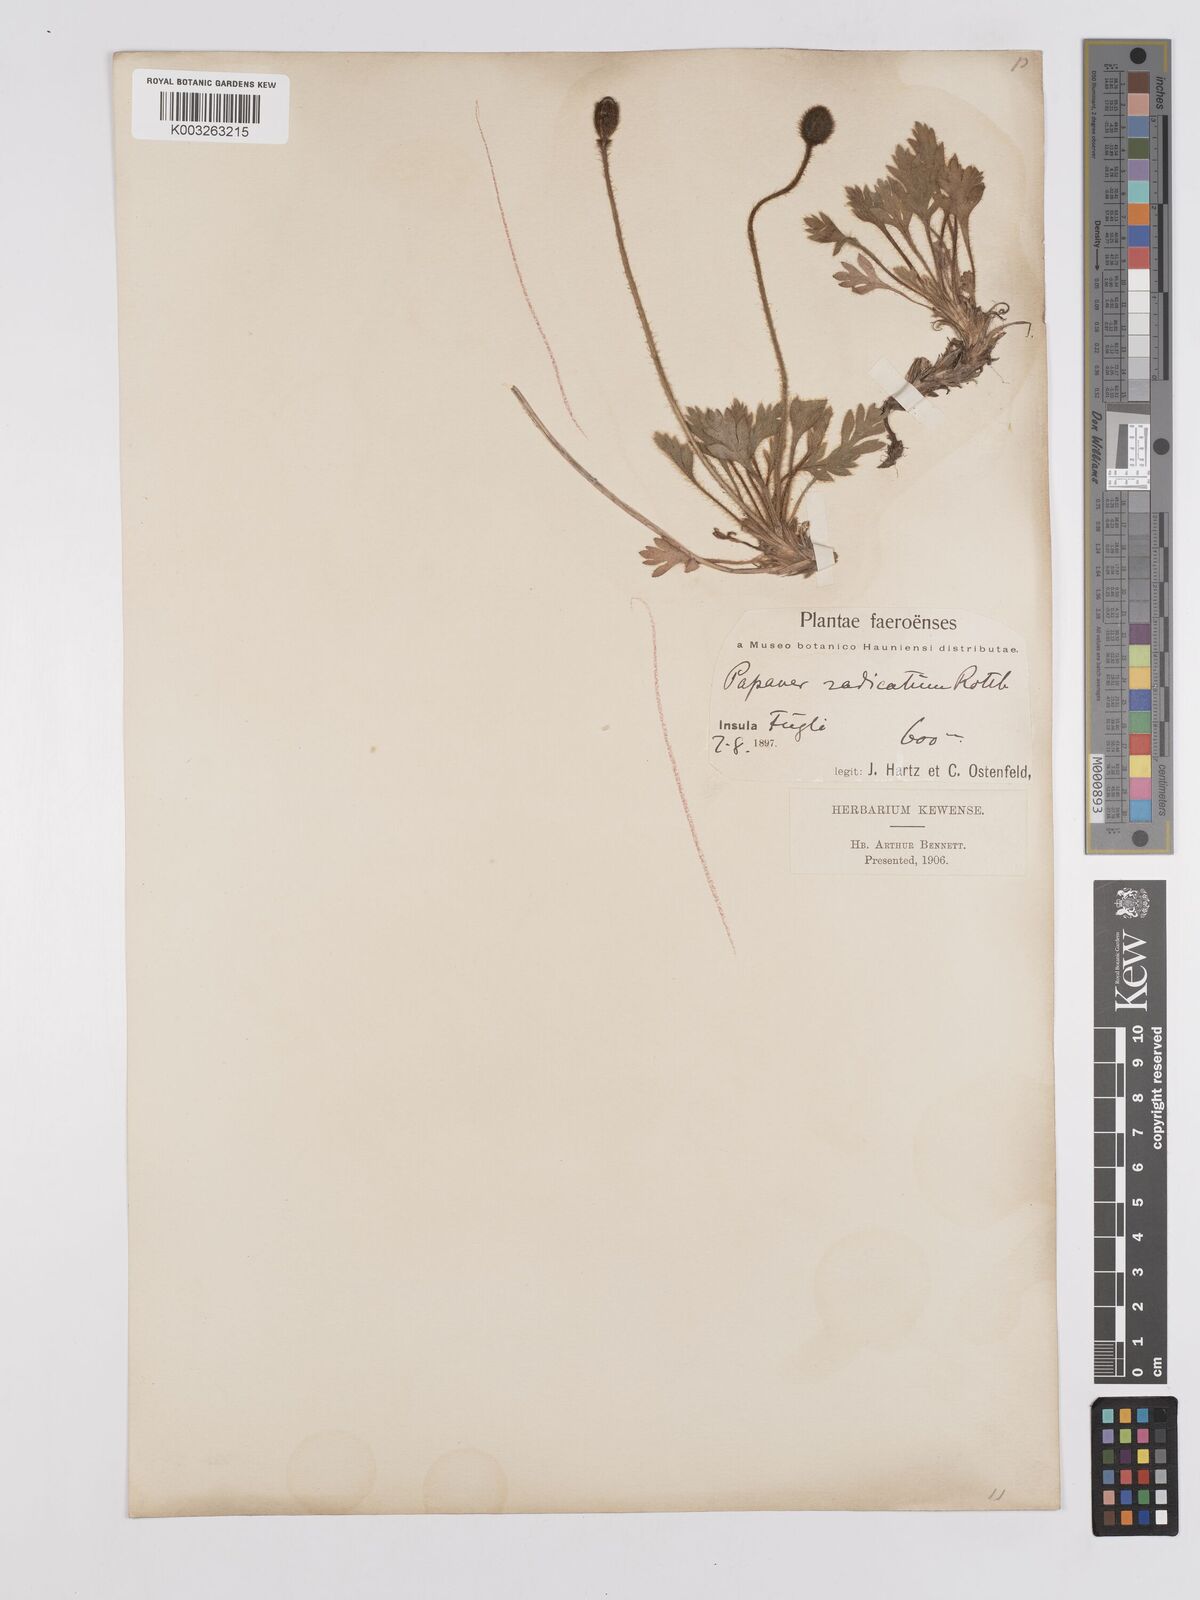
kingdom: Plantae
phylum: Tracheophyta
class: Magnoliopsida
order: Ranunculales
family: Papaveraceae
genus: Papaver
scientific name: Papaver radicatum
